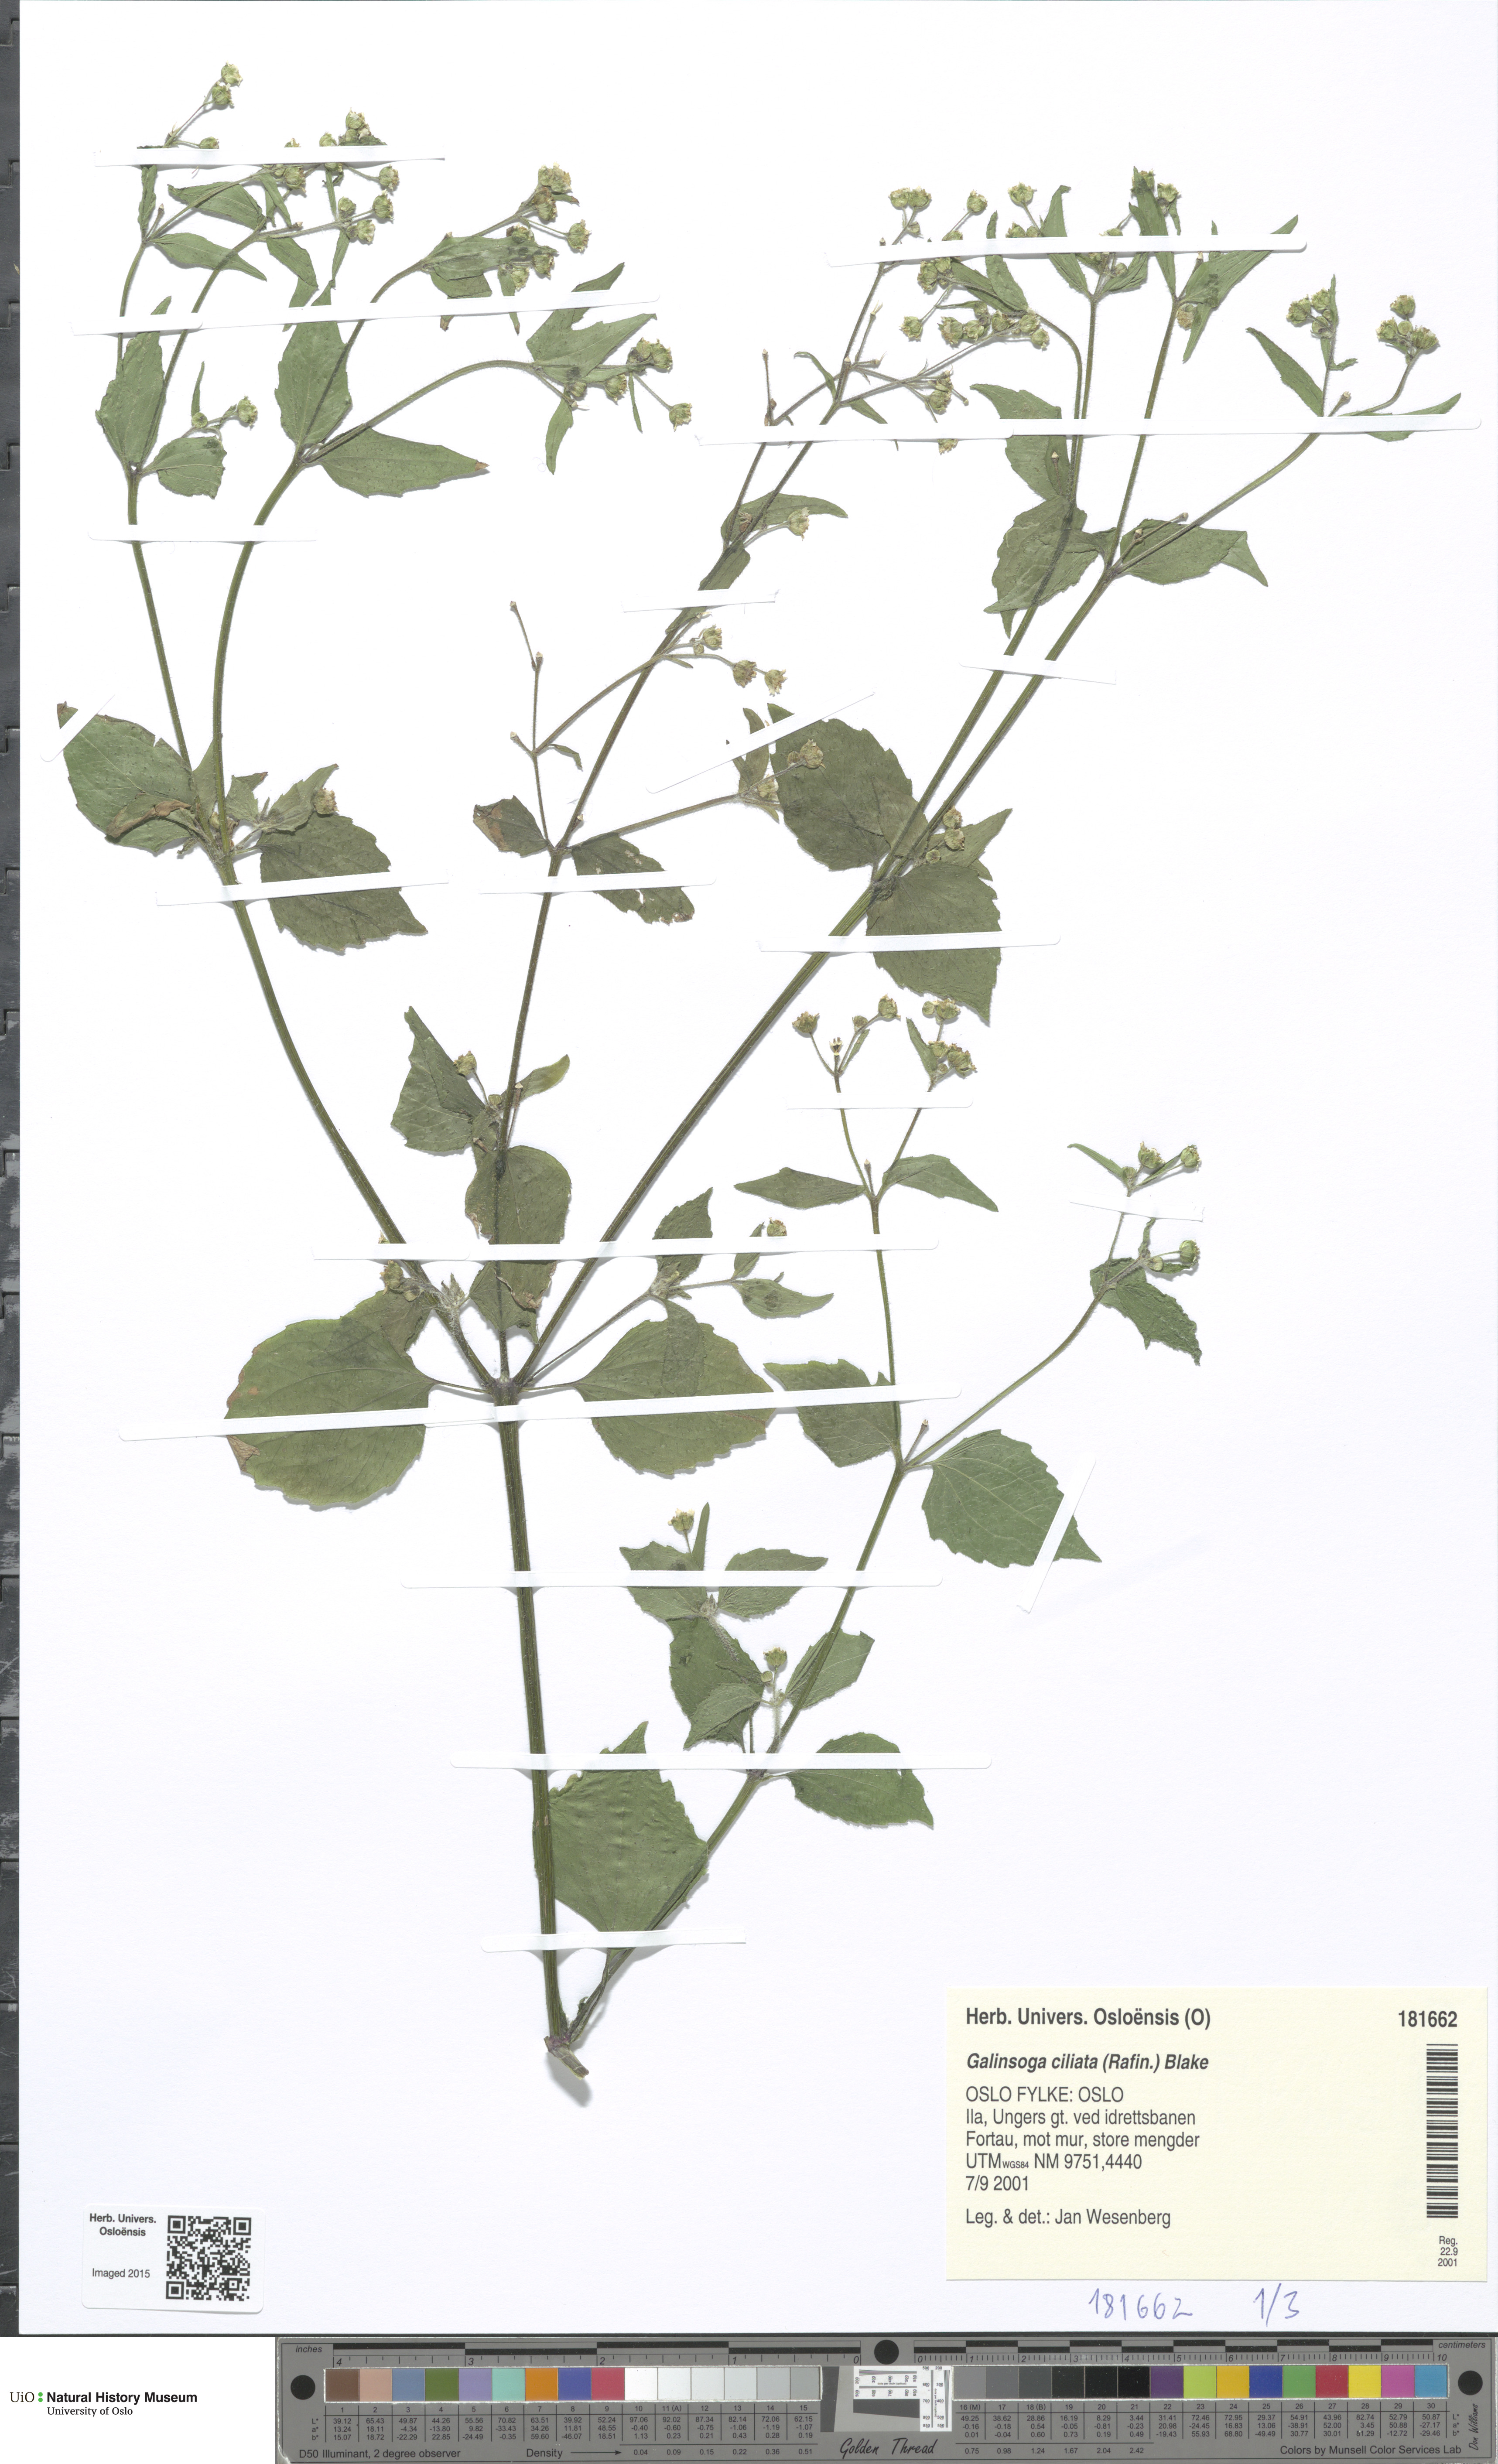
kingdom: Plantae
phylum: Tracheophyta
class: Magnoliopsida
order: Asterales
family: Asteraceae
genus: Galinsoga
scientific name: Galinsoga quadriradiata
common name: Shaggy soldier
